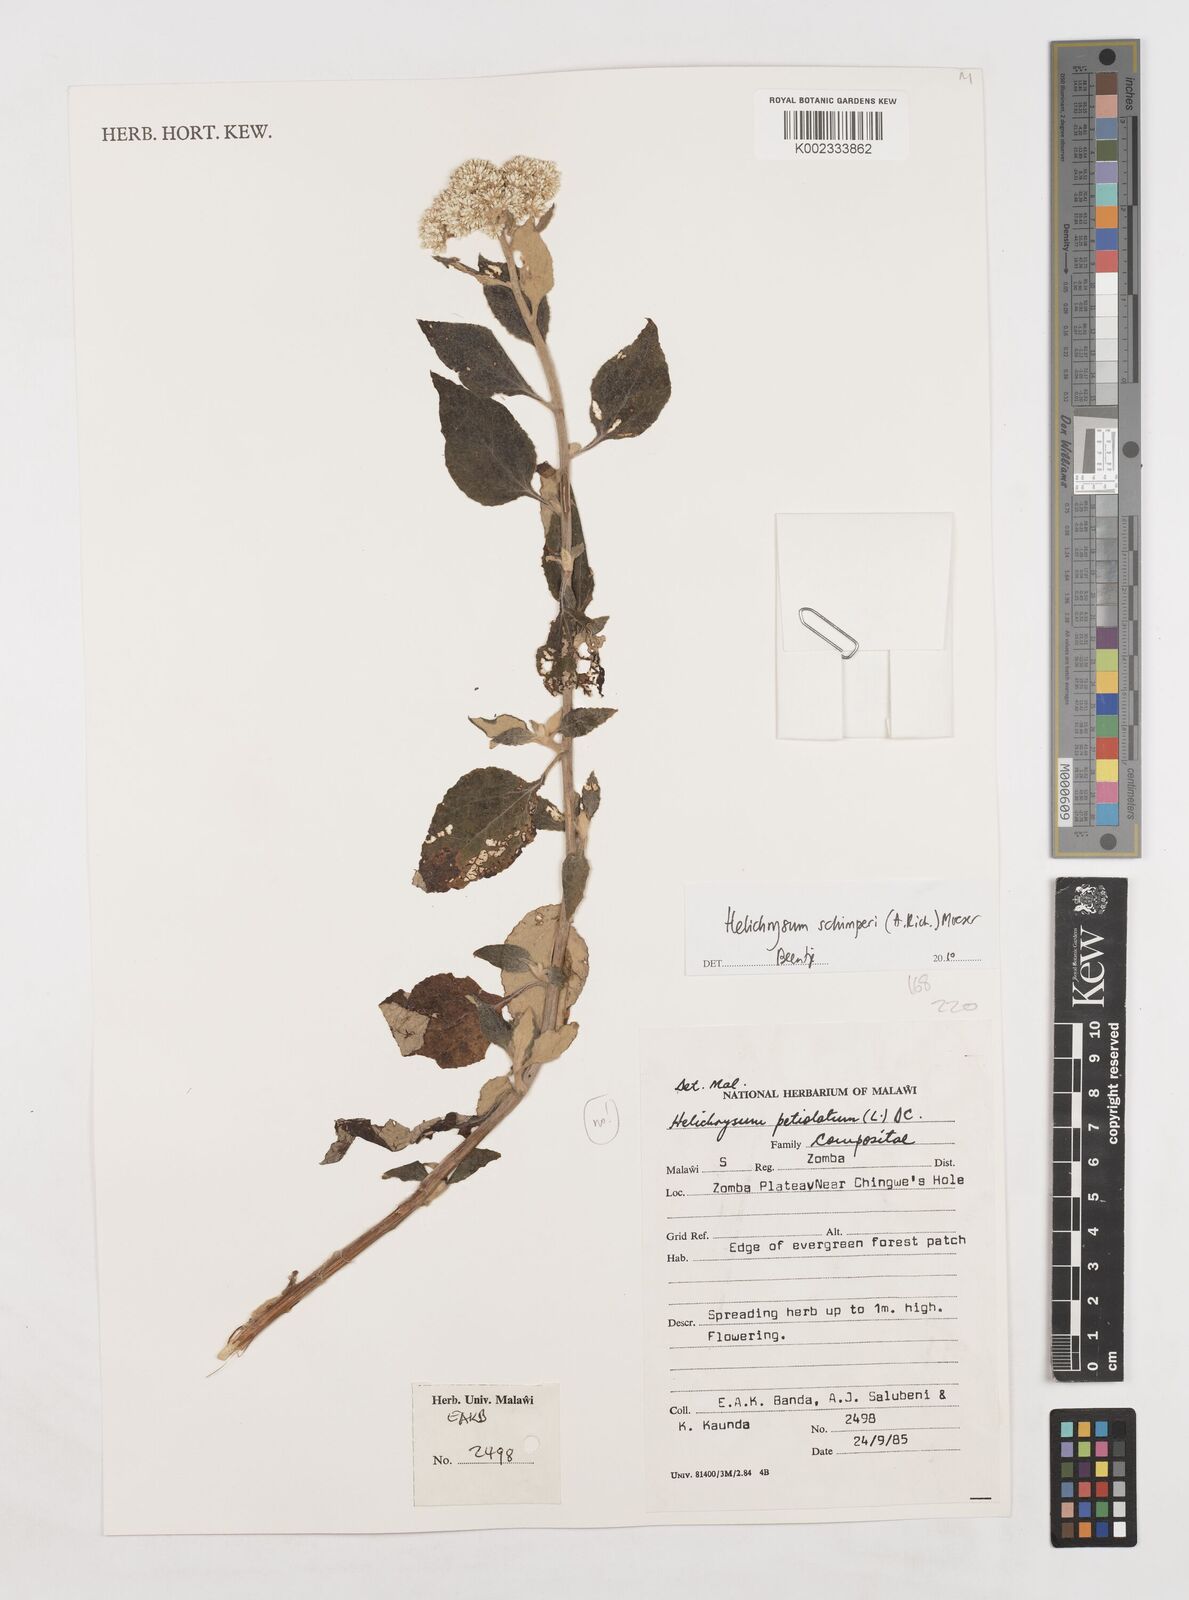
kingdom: Plantae
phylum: Tracheophyta
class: Magnoliopsida
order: Asterales
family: Asteraceae
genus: Helichrysum
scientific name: Helichrysum schimperi
